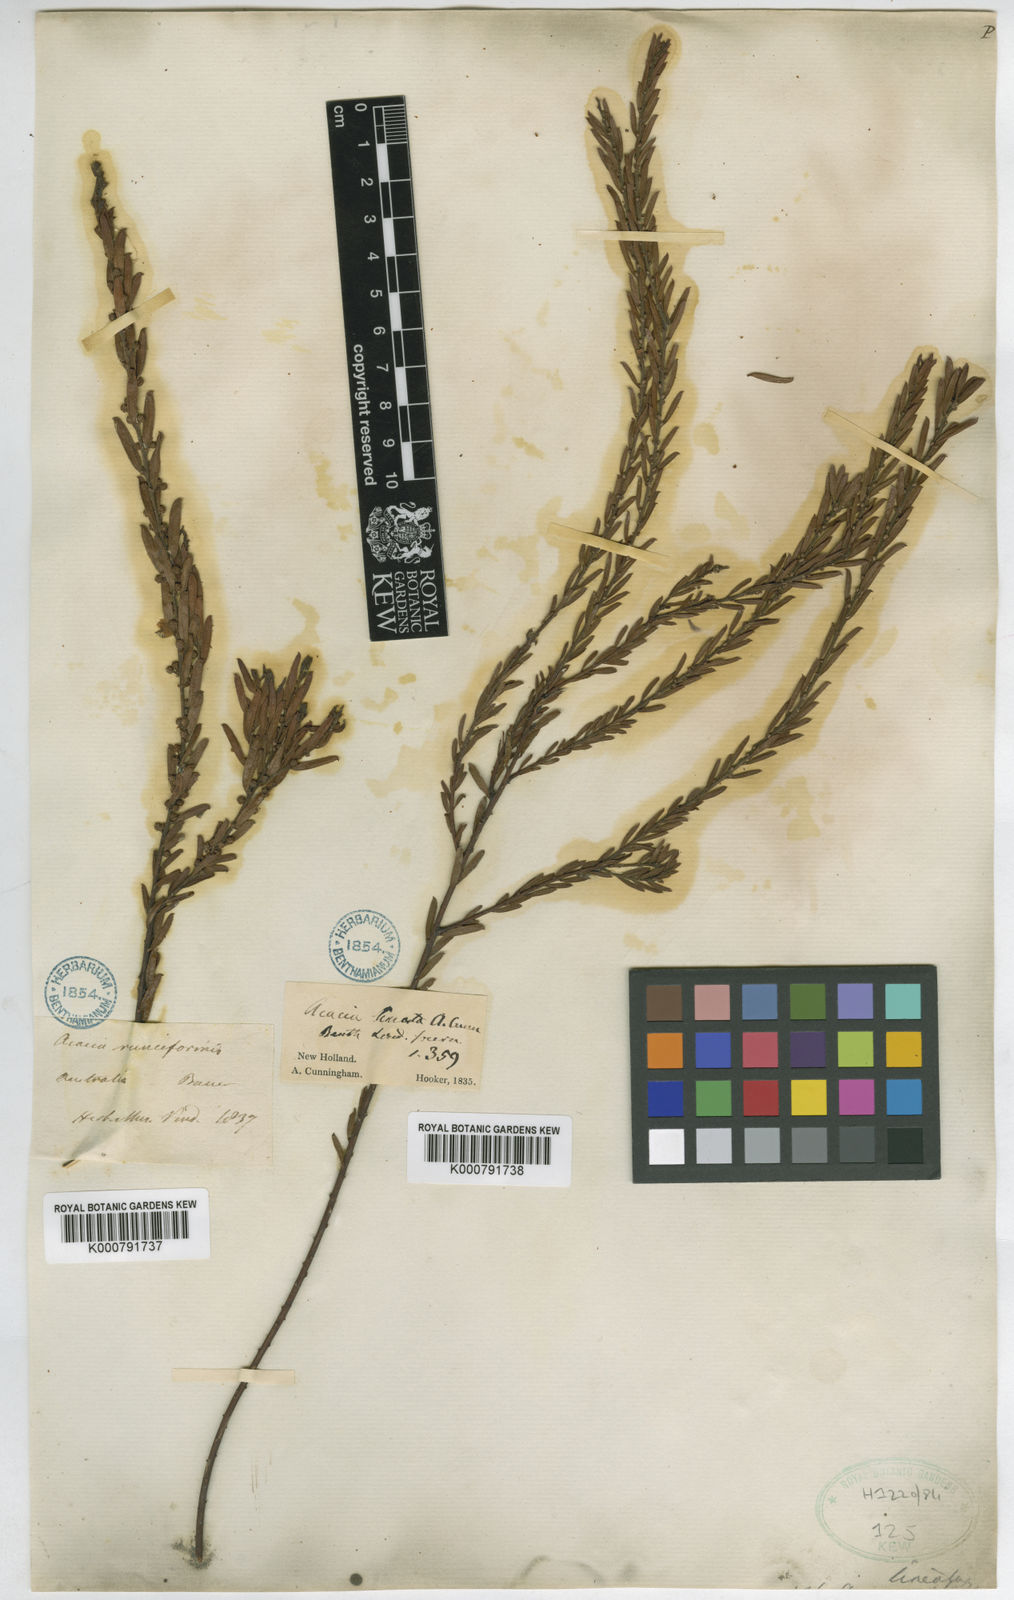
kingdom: Plantae
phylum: Tracheophyta
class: Magnoliopsida
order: Fabales
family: Fabaceae
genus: Acacia
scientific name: Acacia lineata
